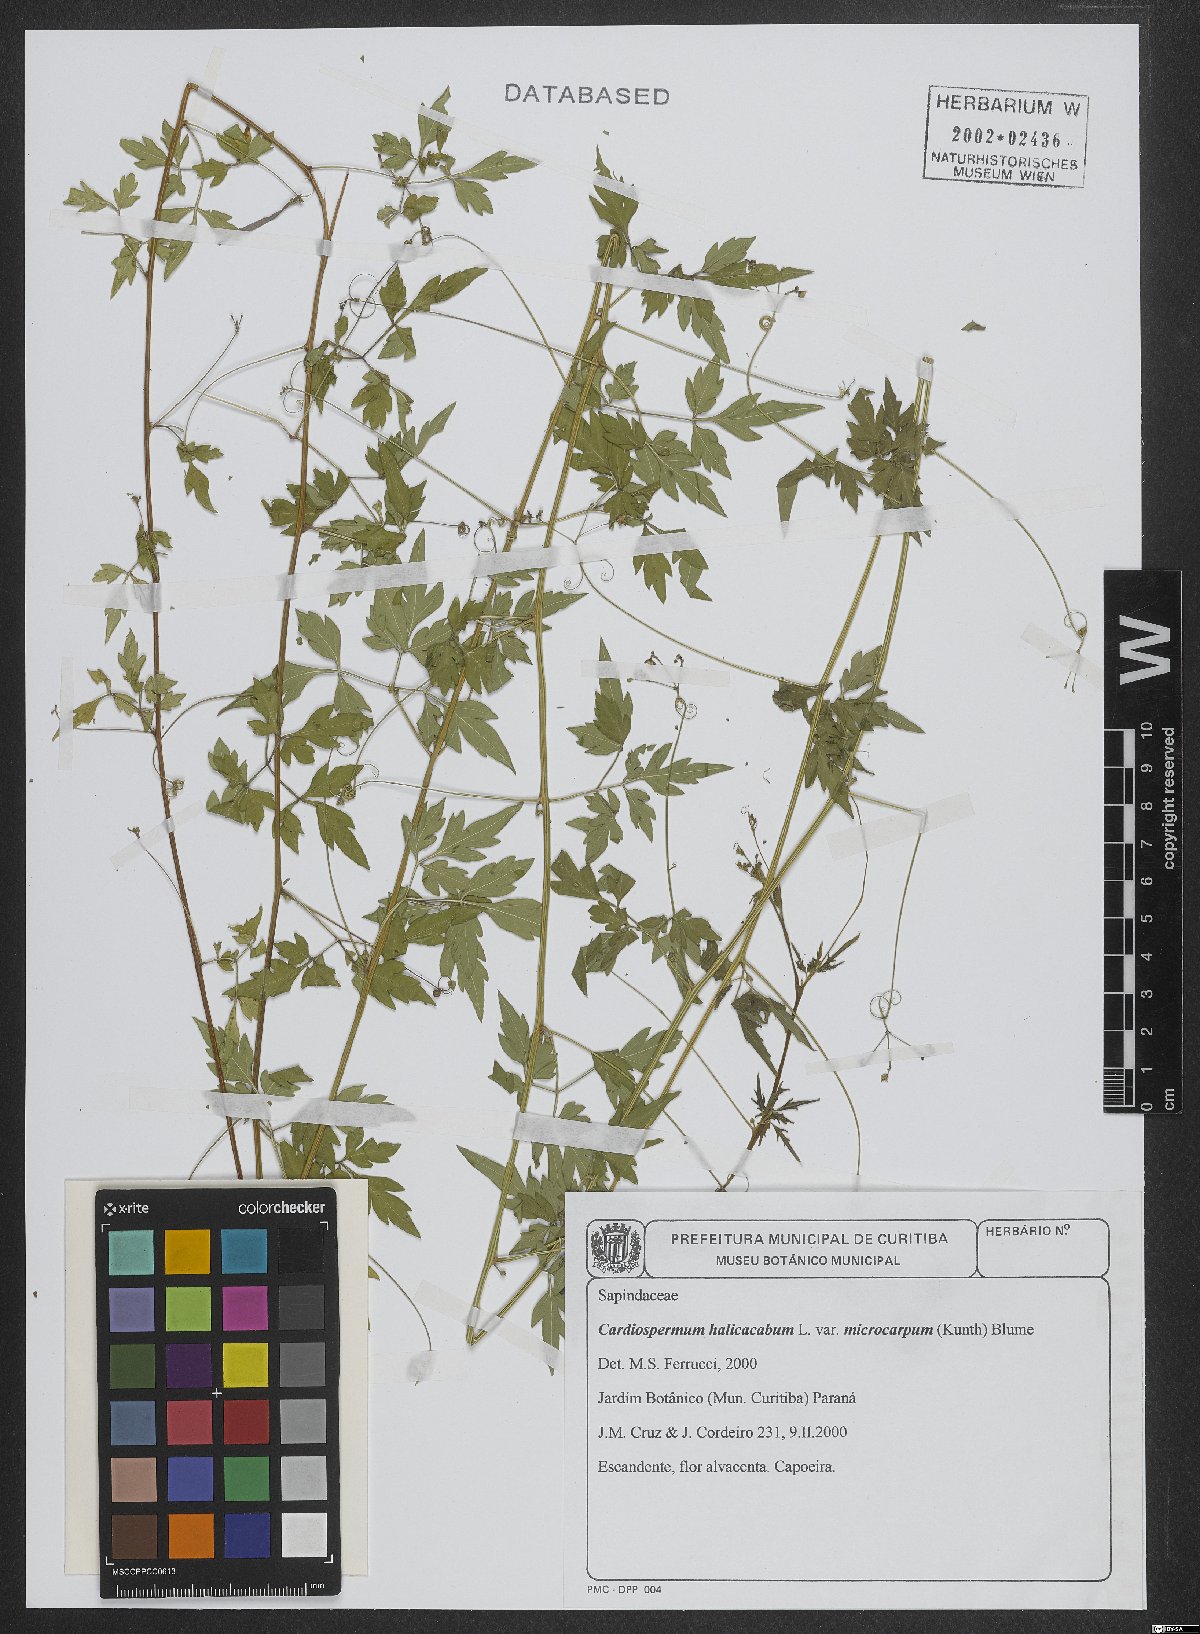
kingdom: Plantae
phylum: Tracheophyta
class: Magnoliopsida
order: Sapindales
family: Sapindaceae
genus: Cardiospermum
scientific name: Cardiospermum microcarpum
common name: Heart seed
